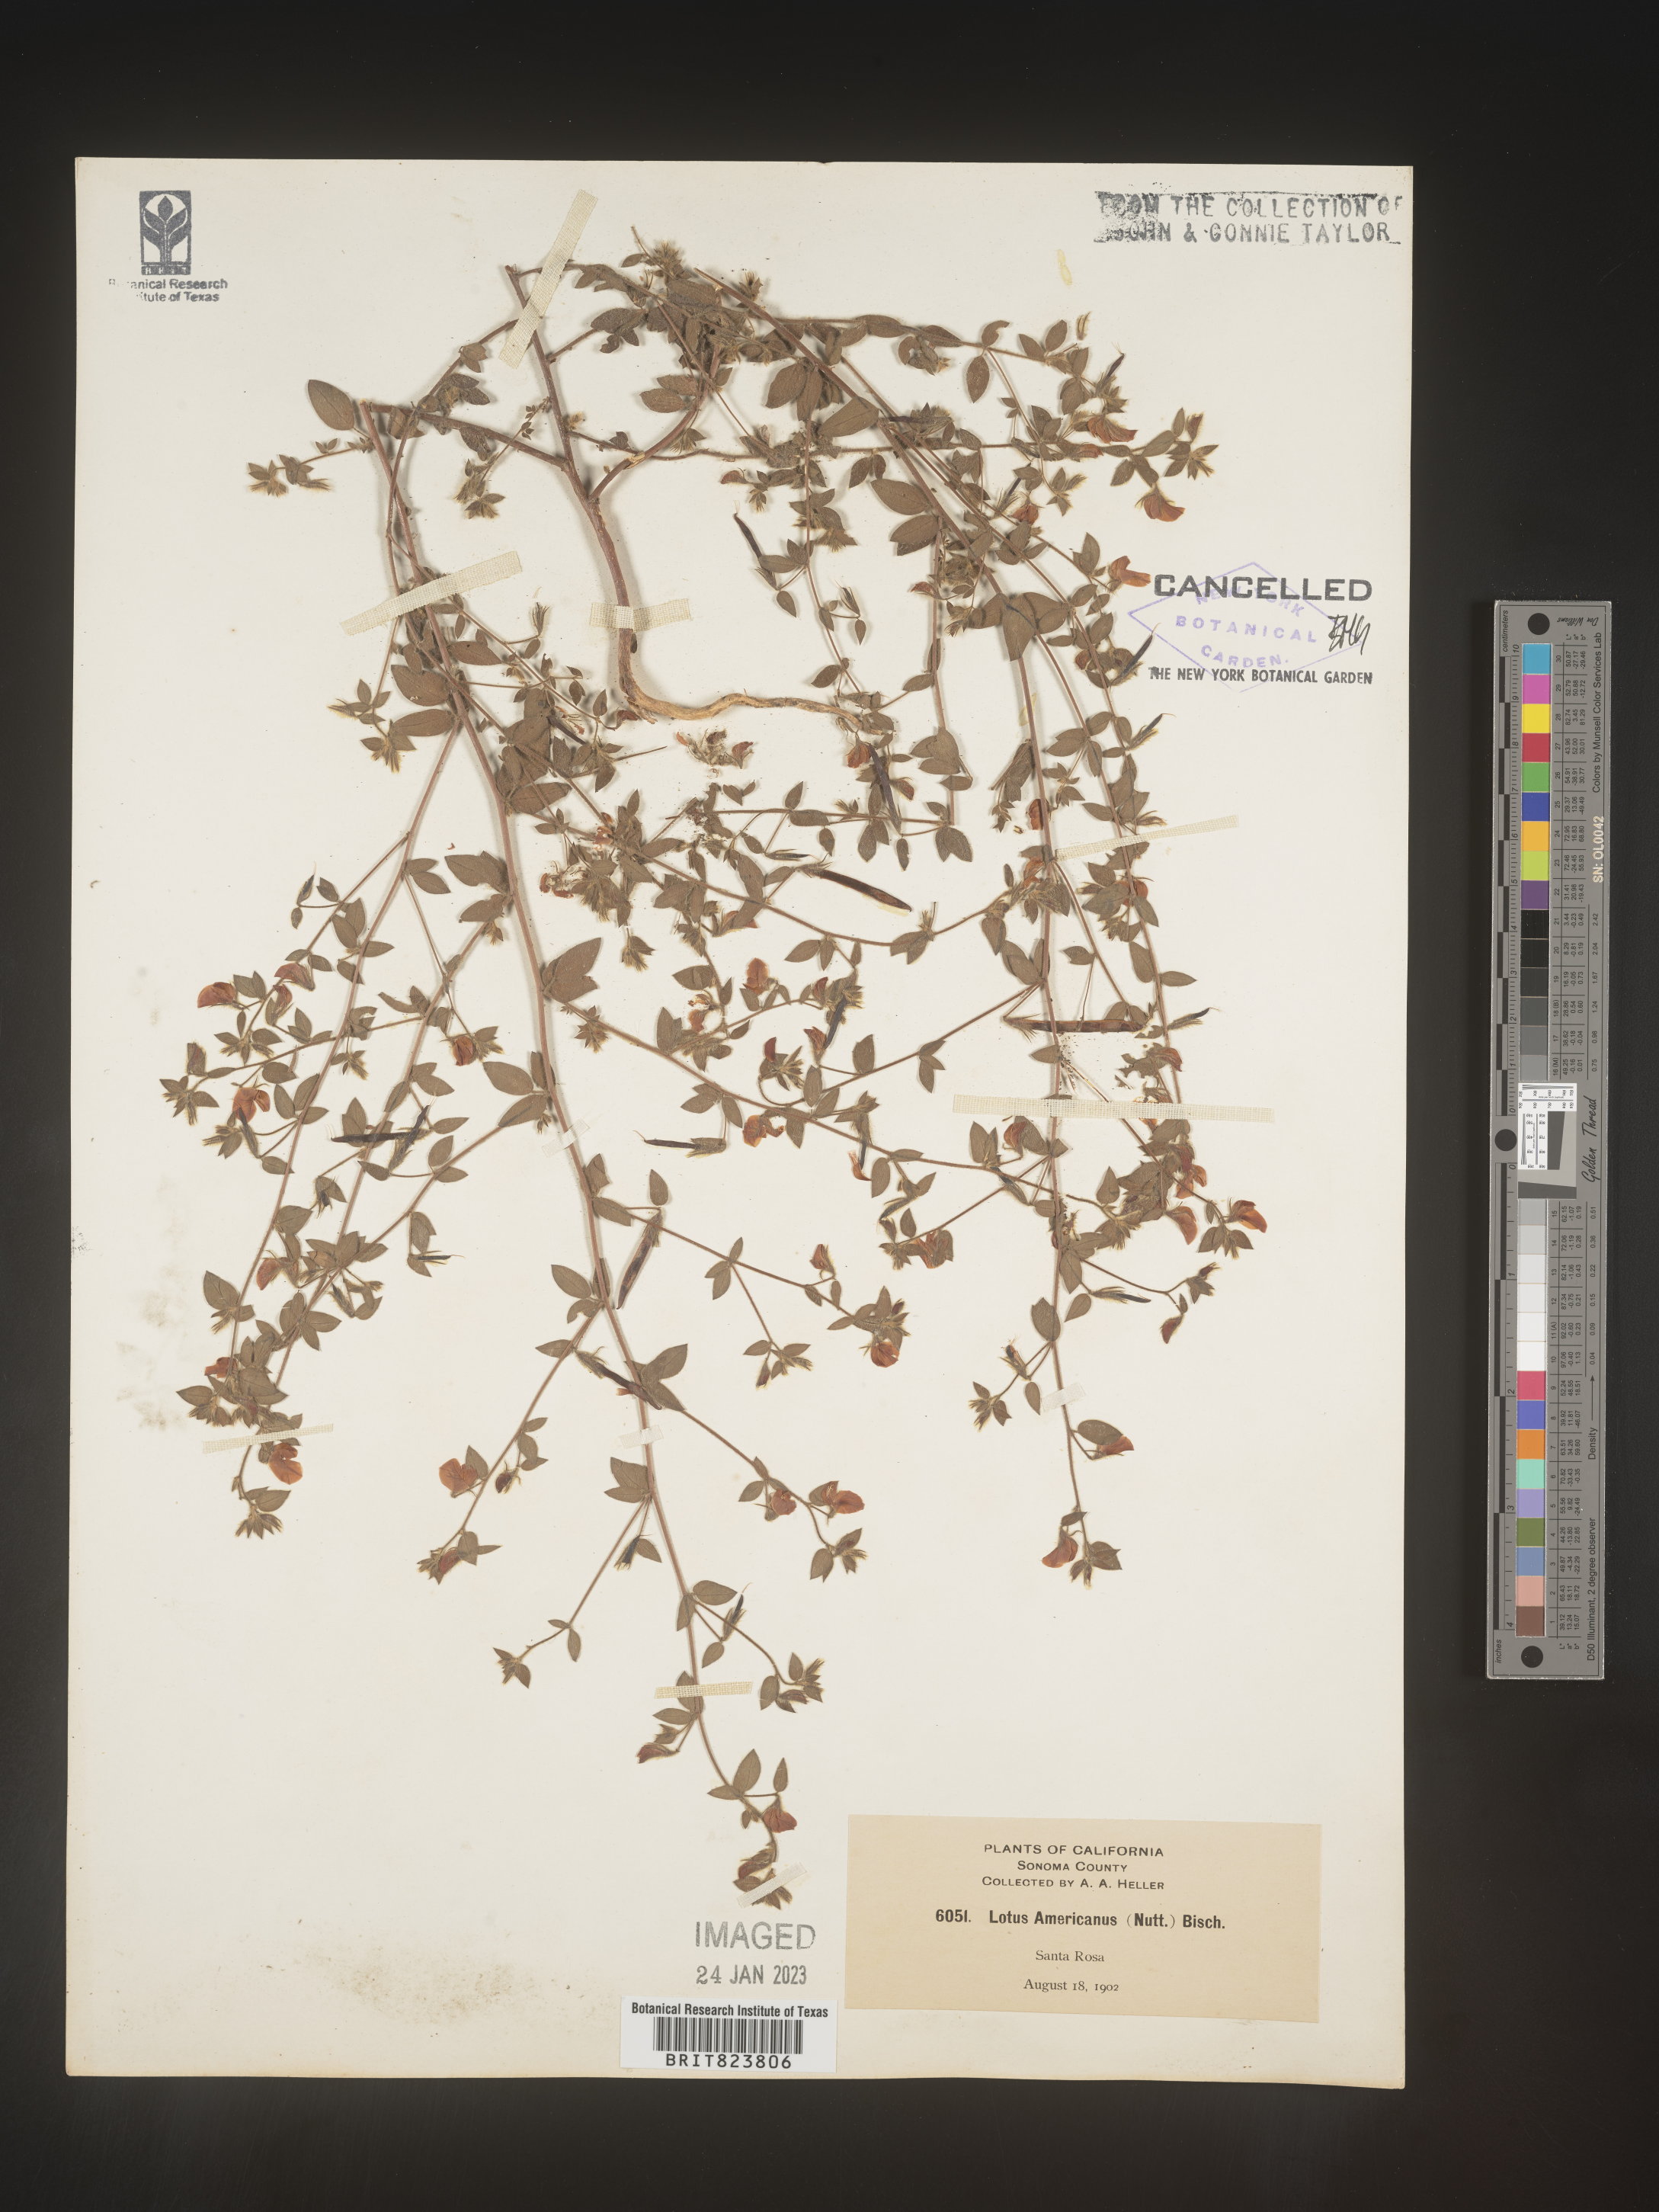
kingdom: Plantae
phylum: Tracheophyta
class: Magnoliopsida
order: Fabales
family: Fabaceae
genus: Acmispon
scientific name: Acmispon americanus
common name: American bird's-foot trefoil
